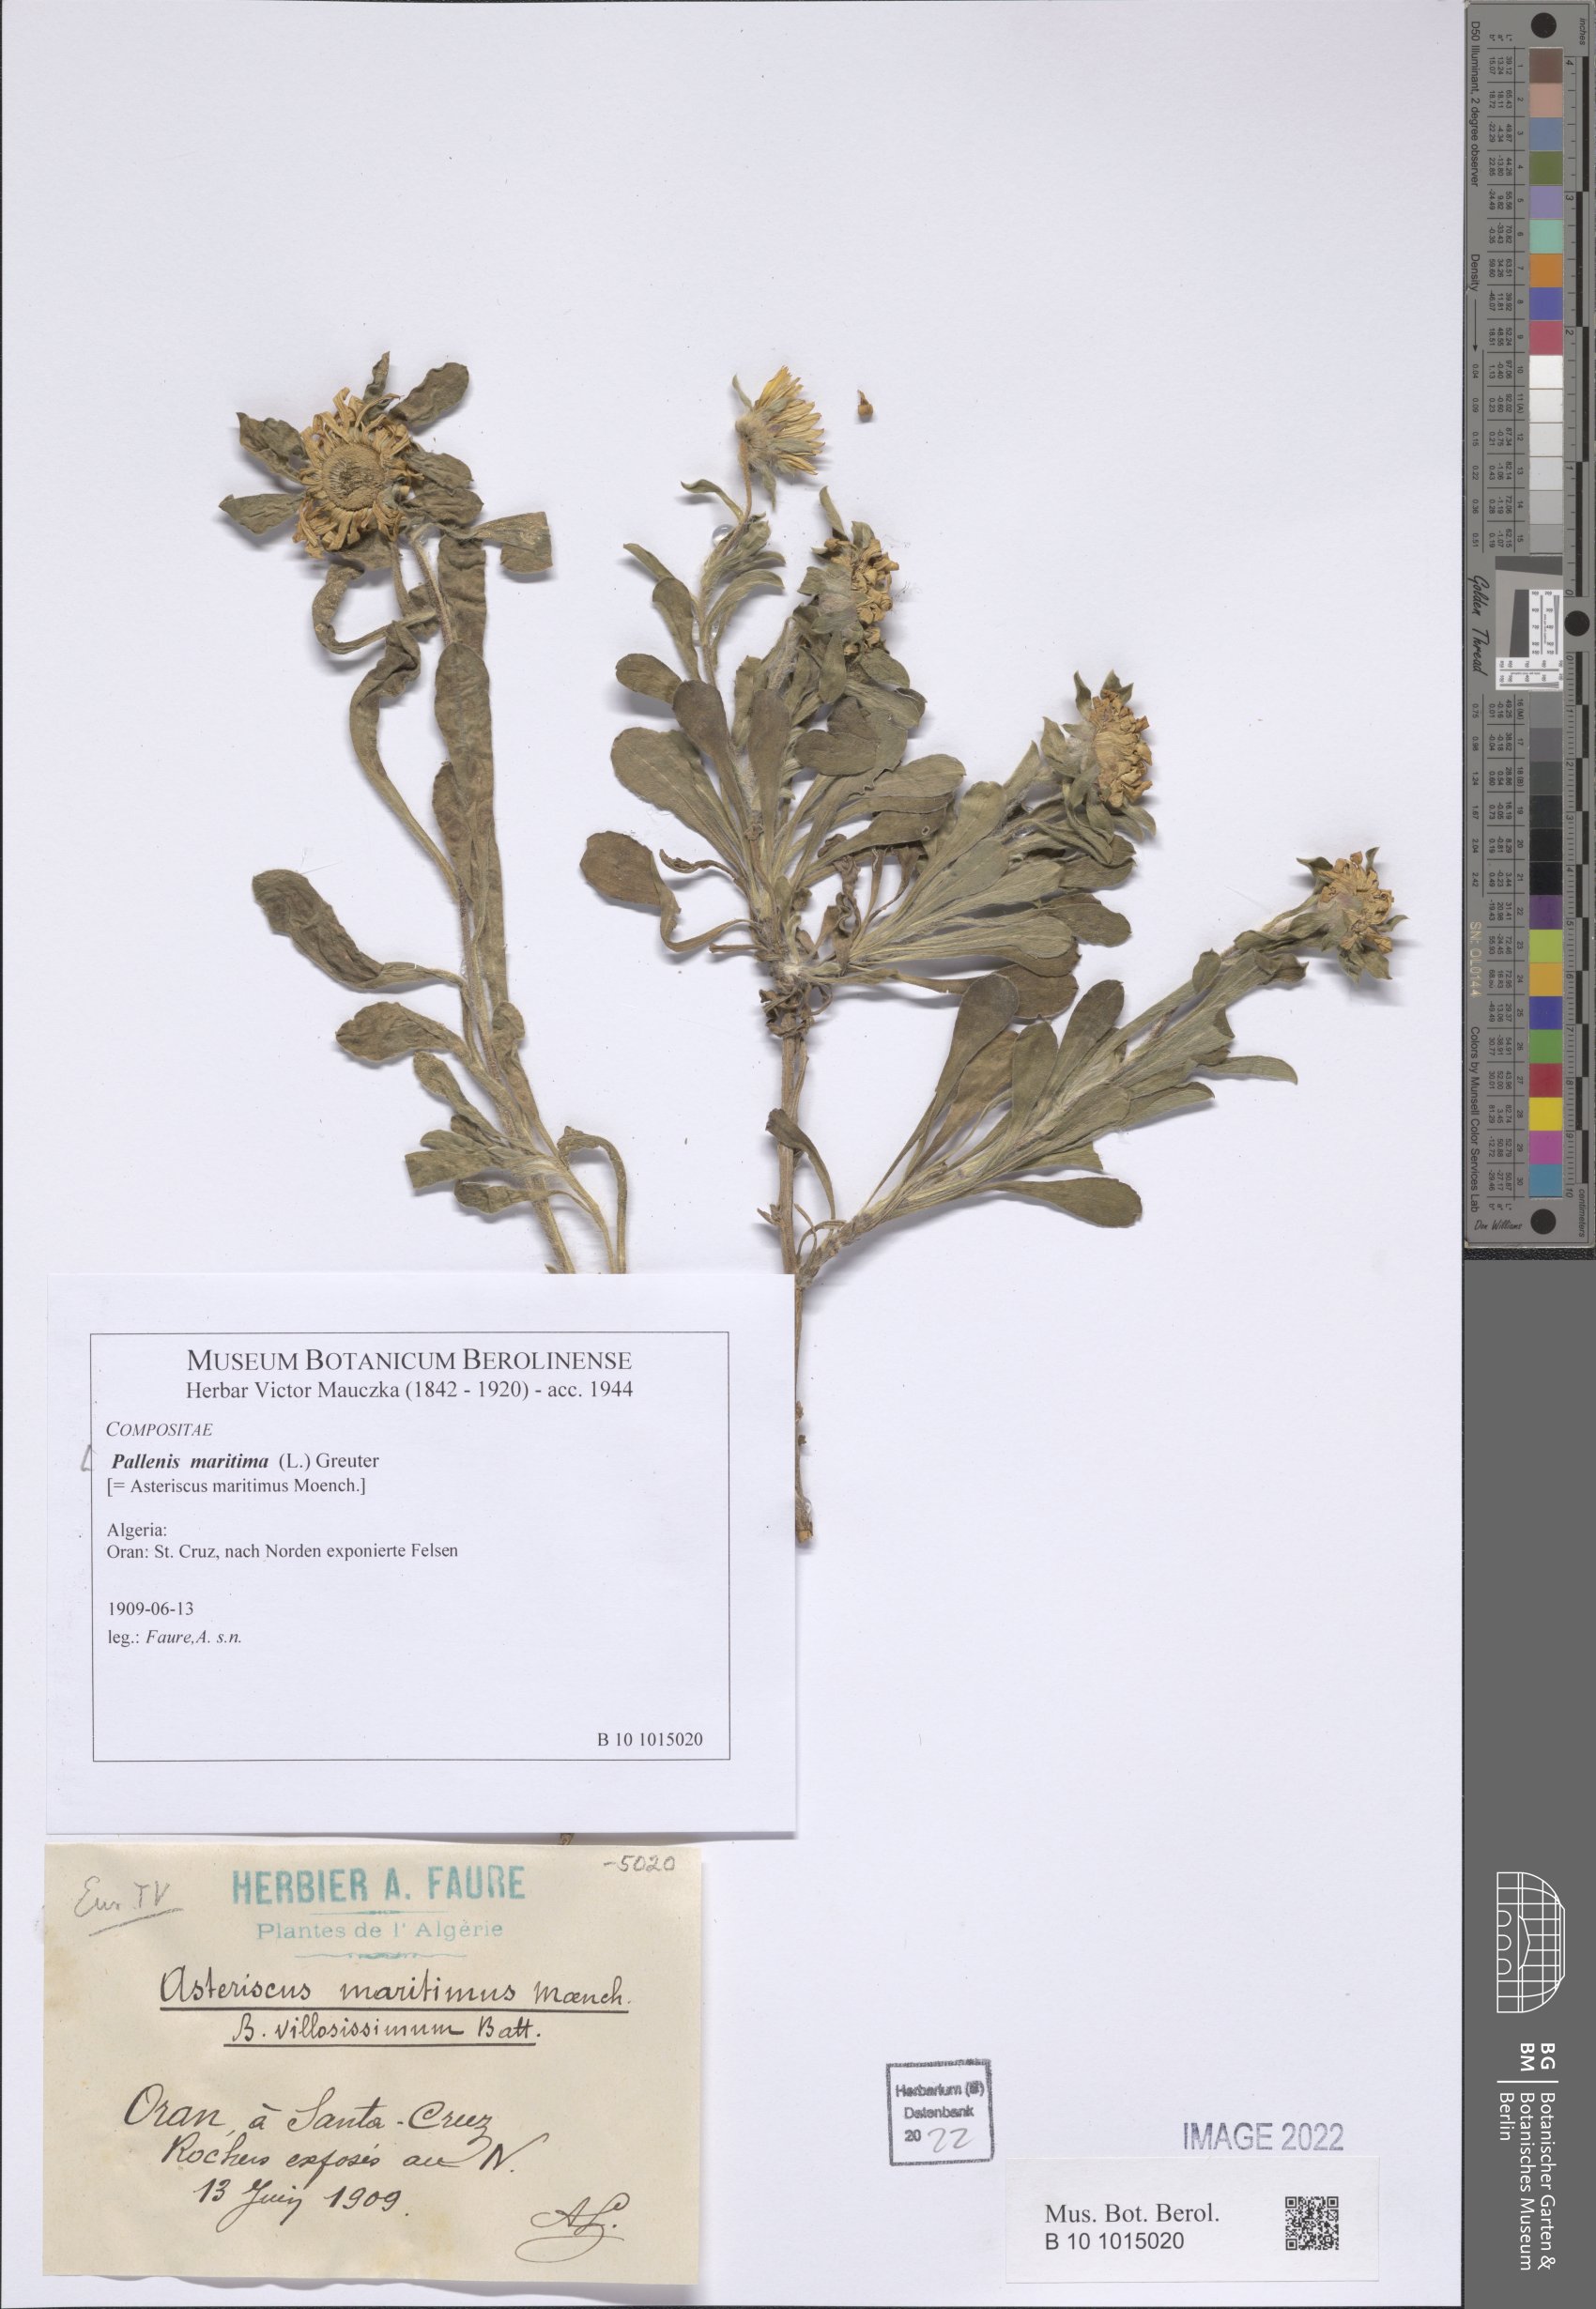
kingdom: Plantae
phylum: Tracheophyta
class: Magnoliopsida
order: Asterales
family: Asteraceae
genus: Pallenis
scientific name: Pallenis maritima
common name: Golden coin daisy
